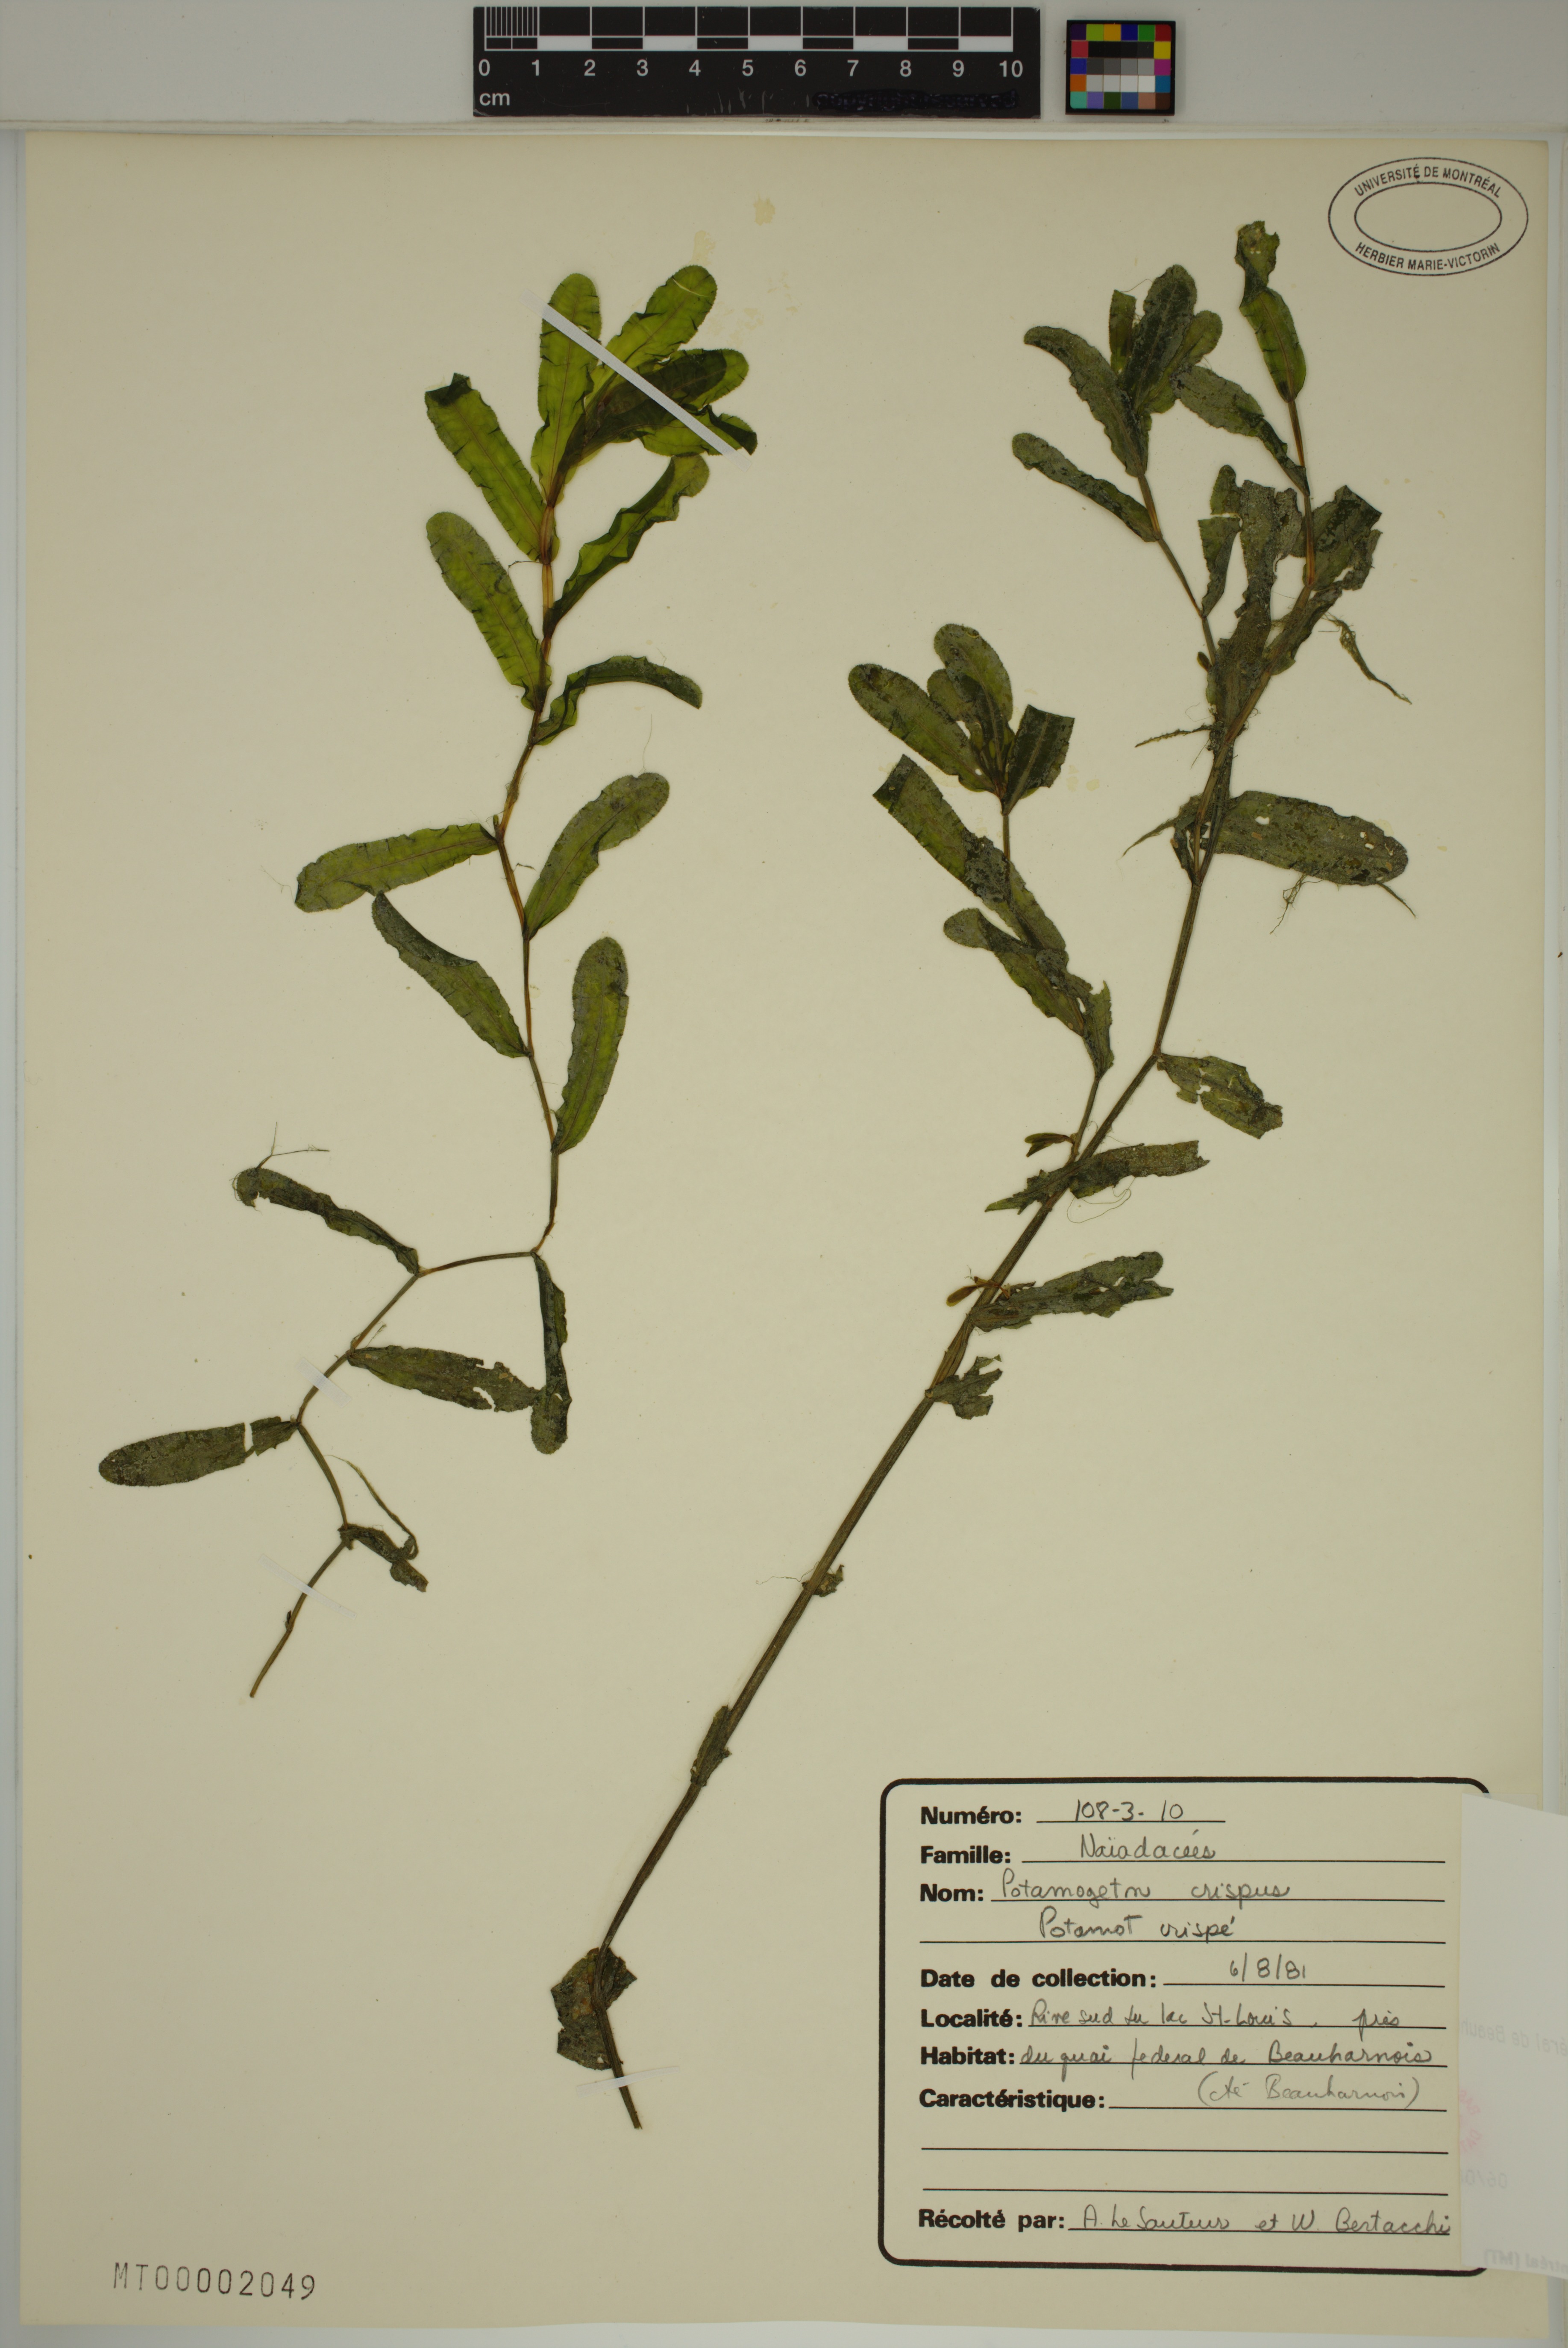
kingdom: Plantae
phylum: Tracheophyta
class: Liliopsida
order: Alismatales
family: Potamogetonaceae
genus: Potamogeton
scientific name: Potamogeton crispus
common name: Curled pondweed
